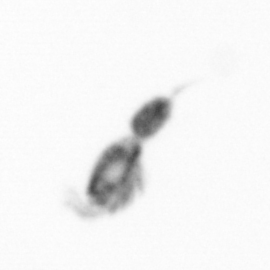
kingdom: Animalia
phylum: Arthropoda
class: Copepoda
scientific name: Copepoda
